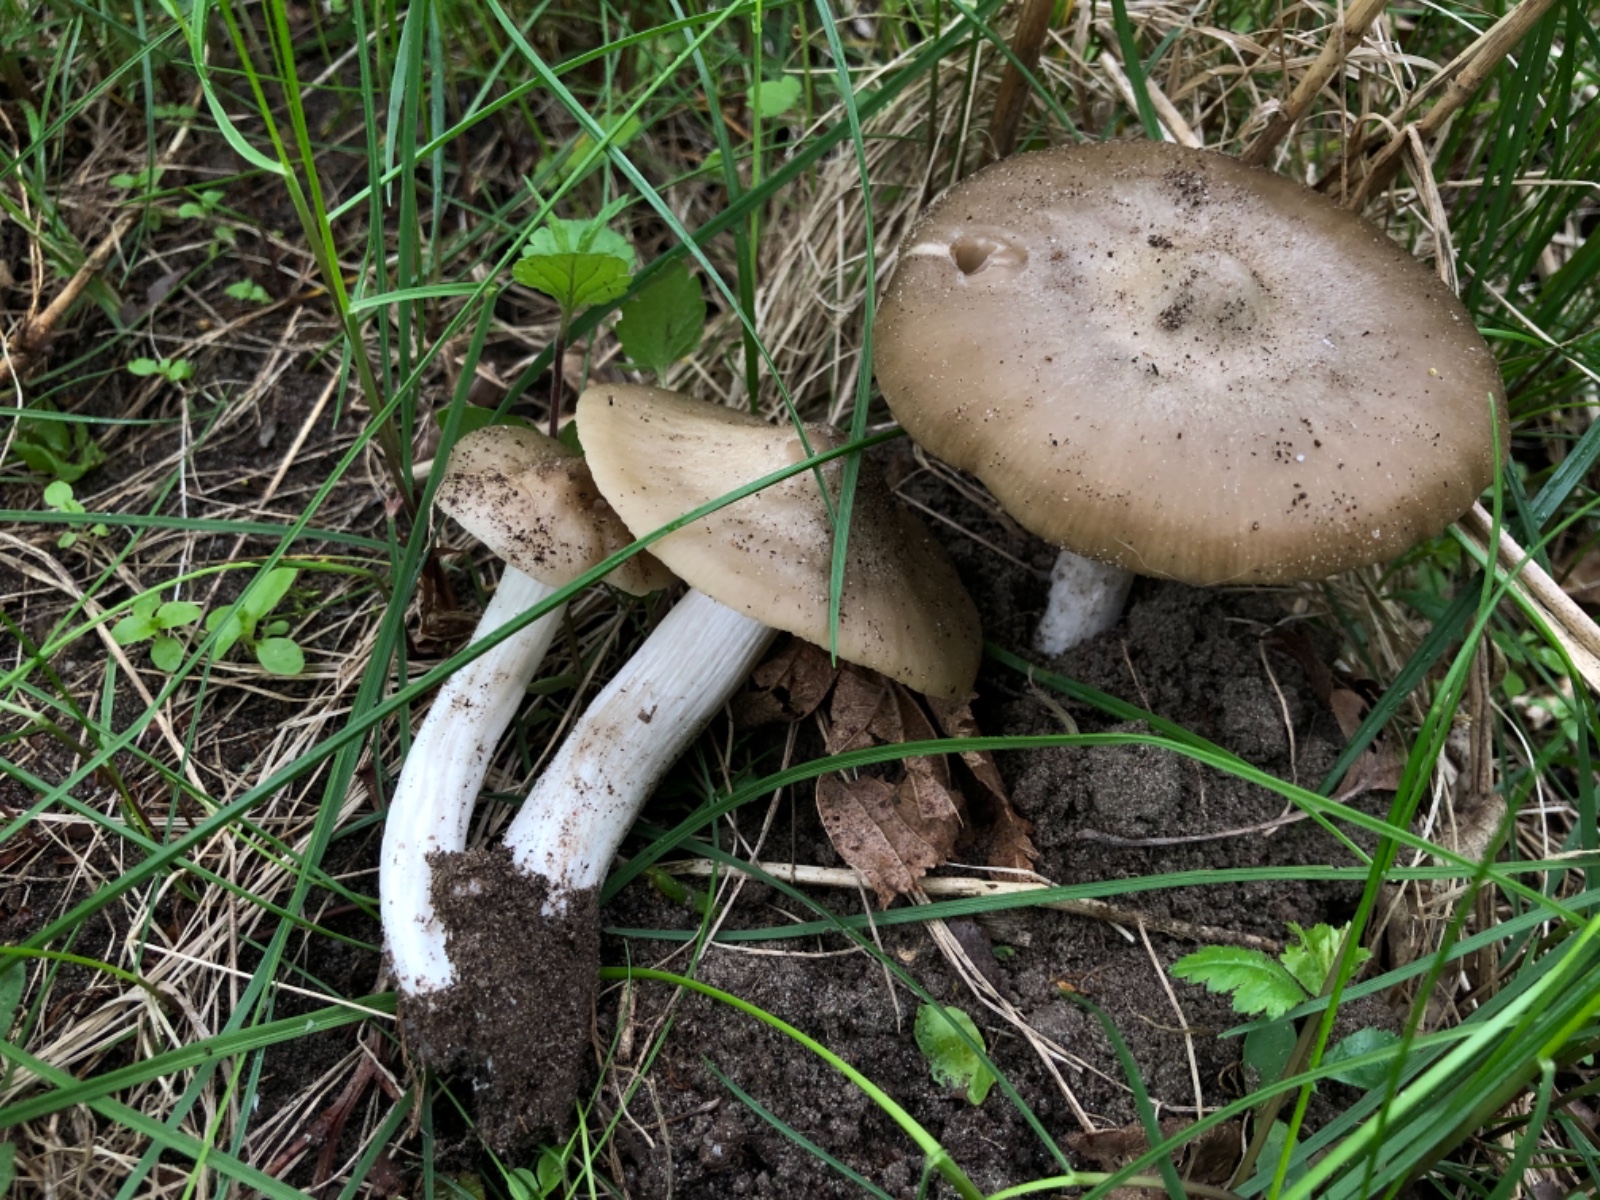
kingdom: Fungi
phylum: Basidiomycota
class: Agaricomycetes
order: Agaricales
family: Entolomataceae
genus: Entoloma
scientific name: Entoloma clypeatum
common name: Shield pinkgill
